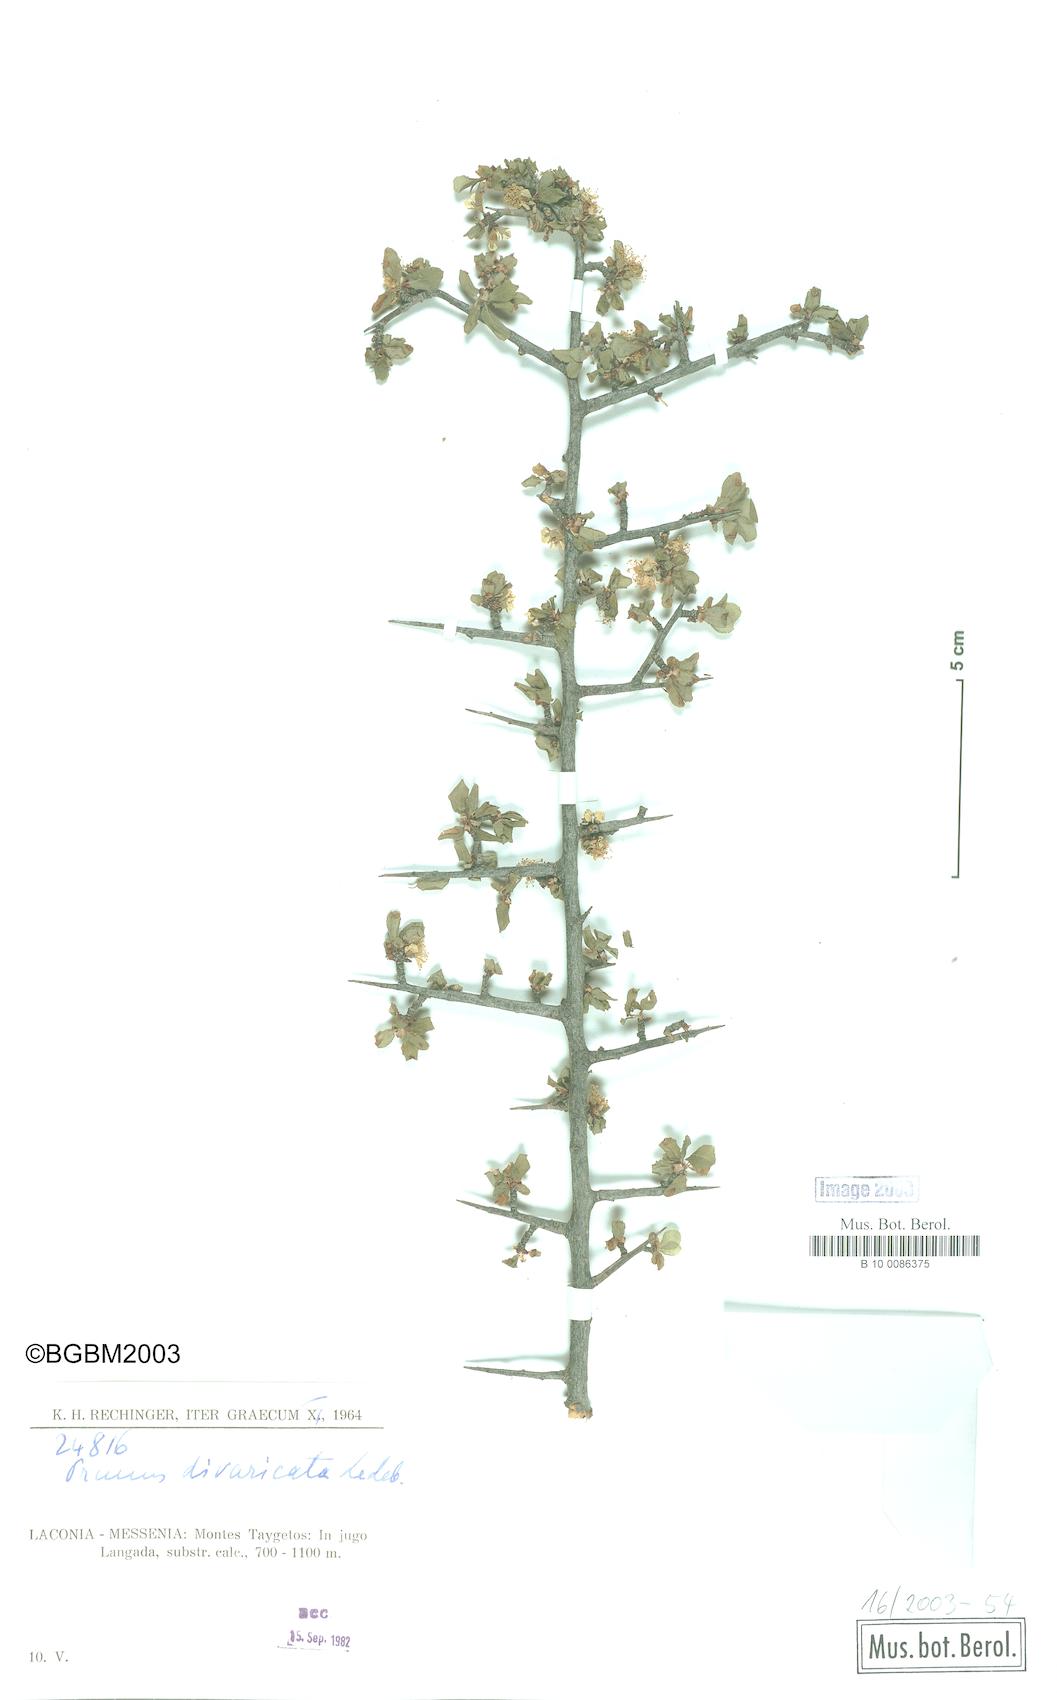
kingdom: Plantae
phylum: Tracheophyta
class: Magnoliopsida
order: Rosales
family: Rosaceae
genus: Prunus
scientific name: Prunus cocomilia
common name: Italian plum
